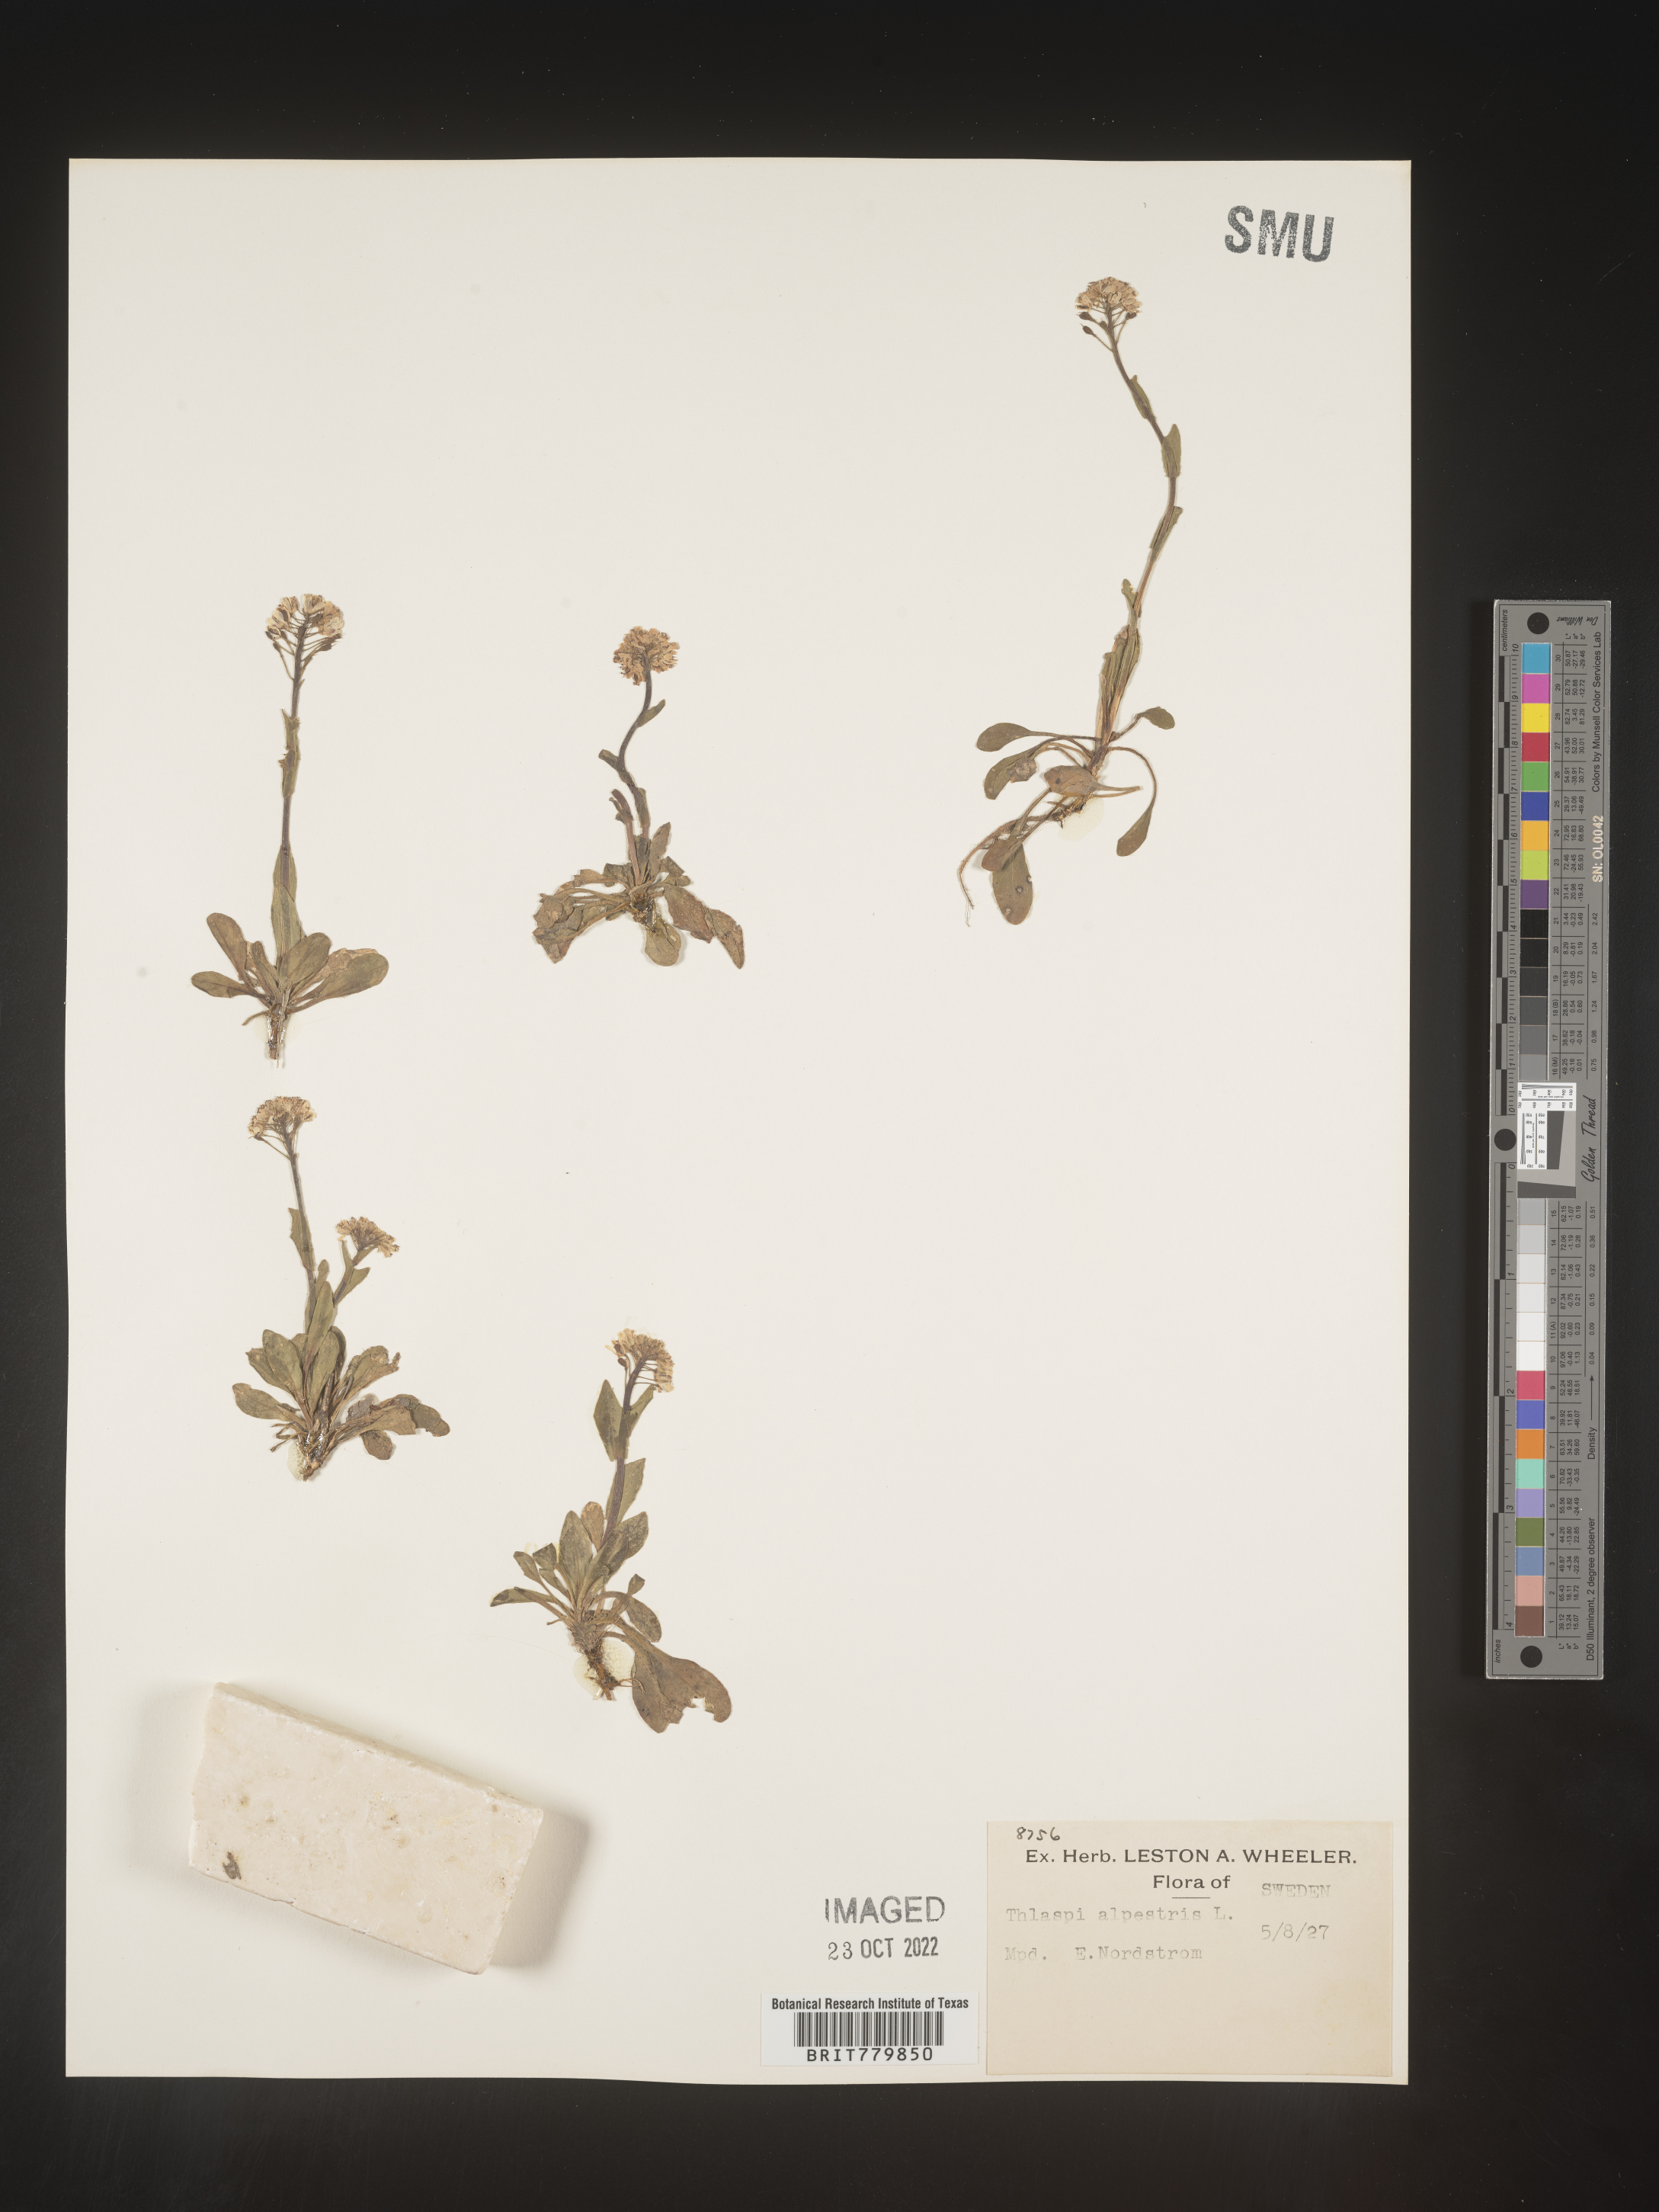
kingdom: Plantae
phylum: Tracheophyta
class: Magnoliopsida
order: Brassicales
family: Brassicaceae
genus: Thlaspi
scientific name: Thlaspi
